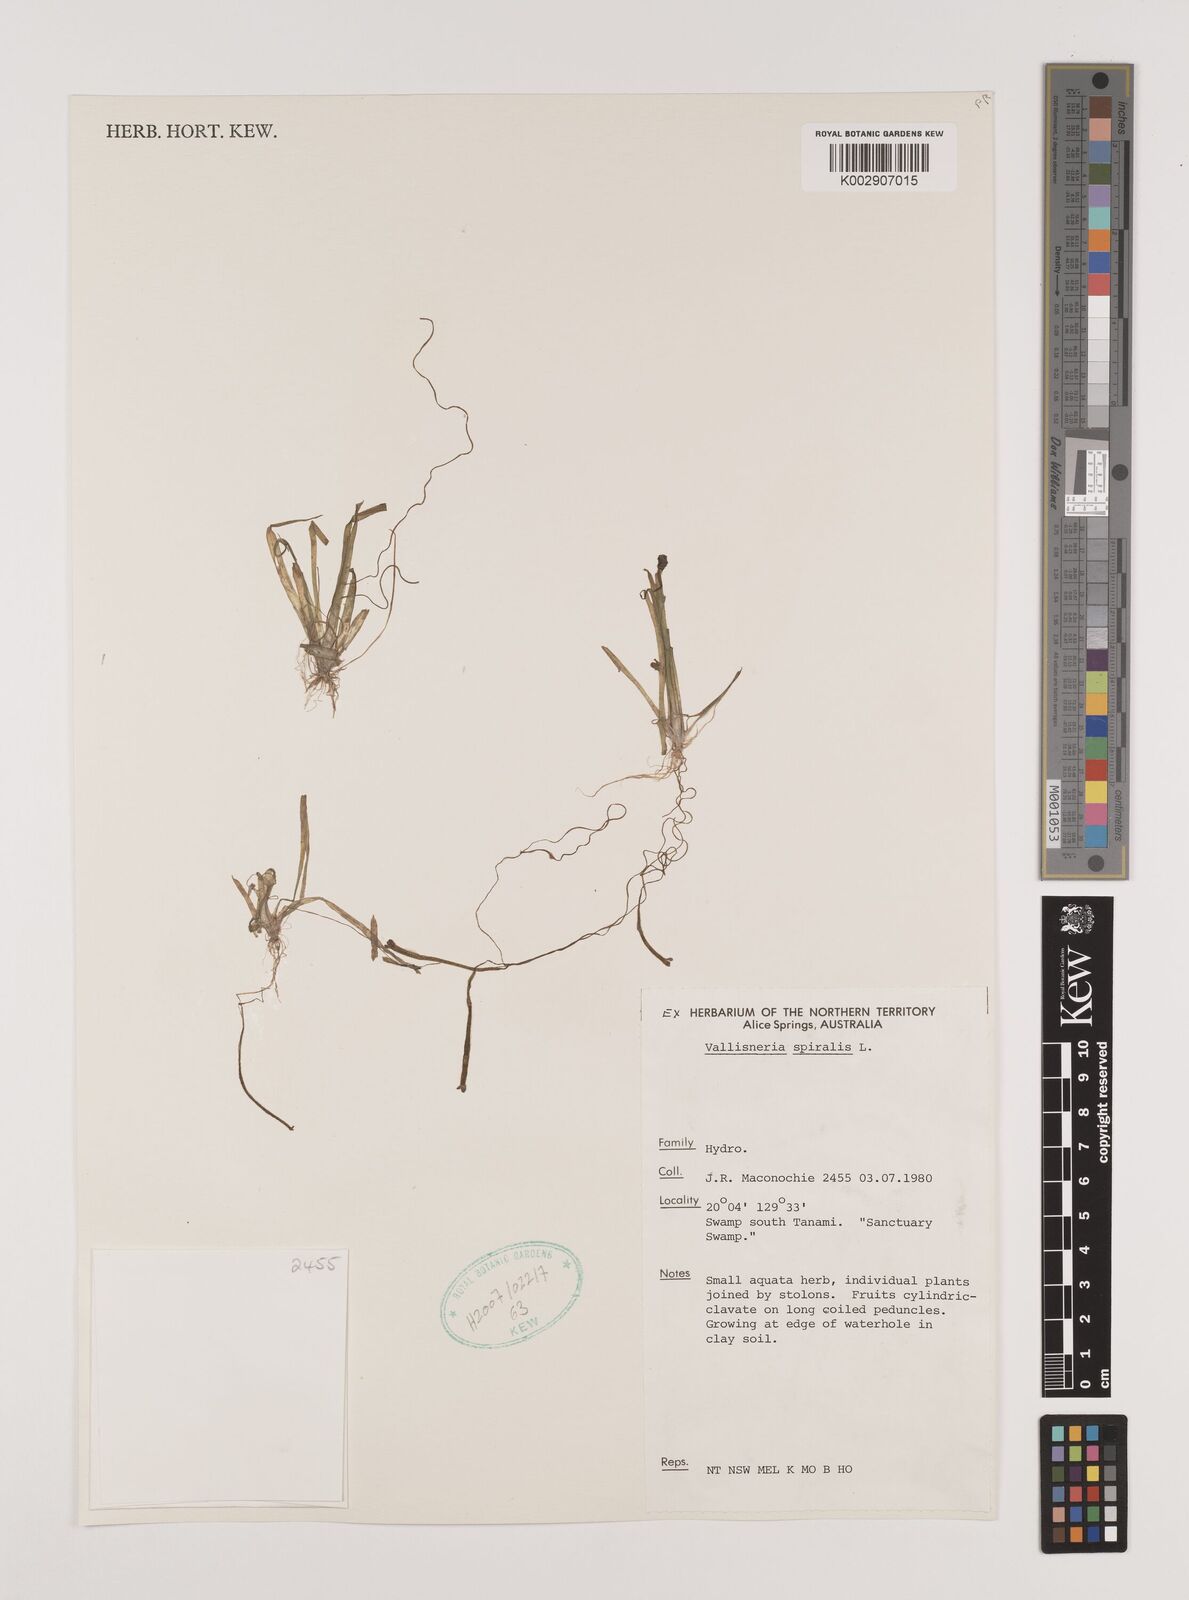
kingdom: Plantae
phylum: Tracheophyta
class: Liliopsida
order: Alismatales
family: Hydrocharitaceae
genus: Vallisneria
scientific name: Vallisneria spiralis
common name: Tapegrass
